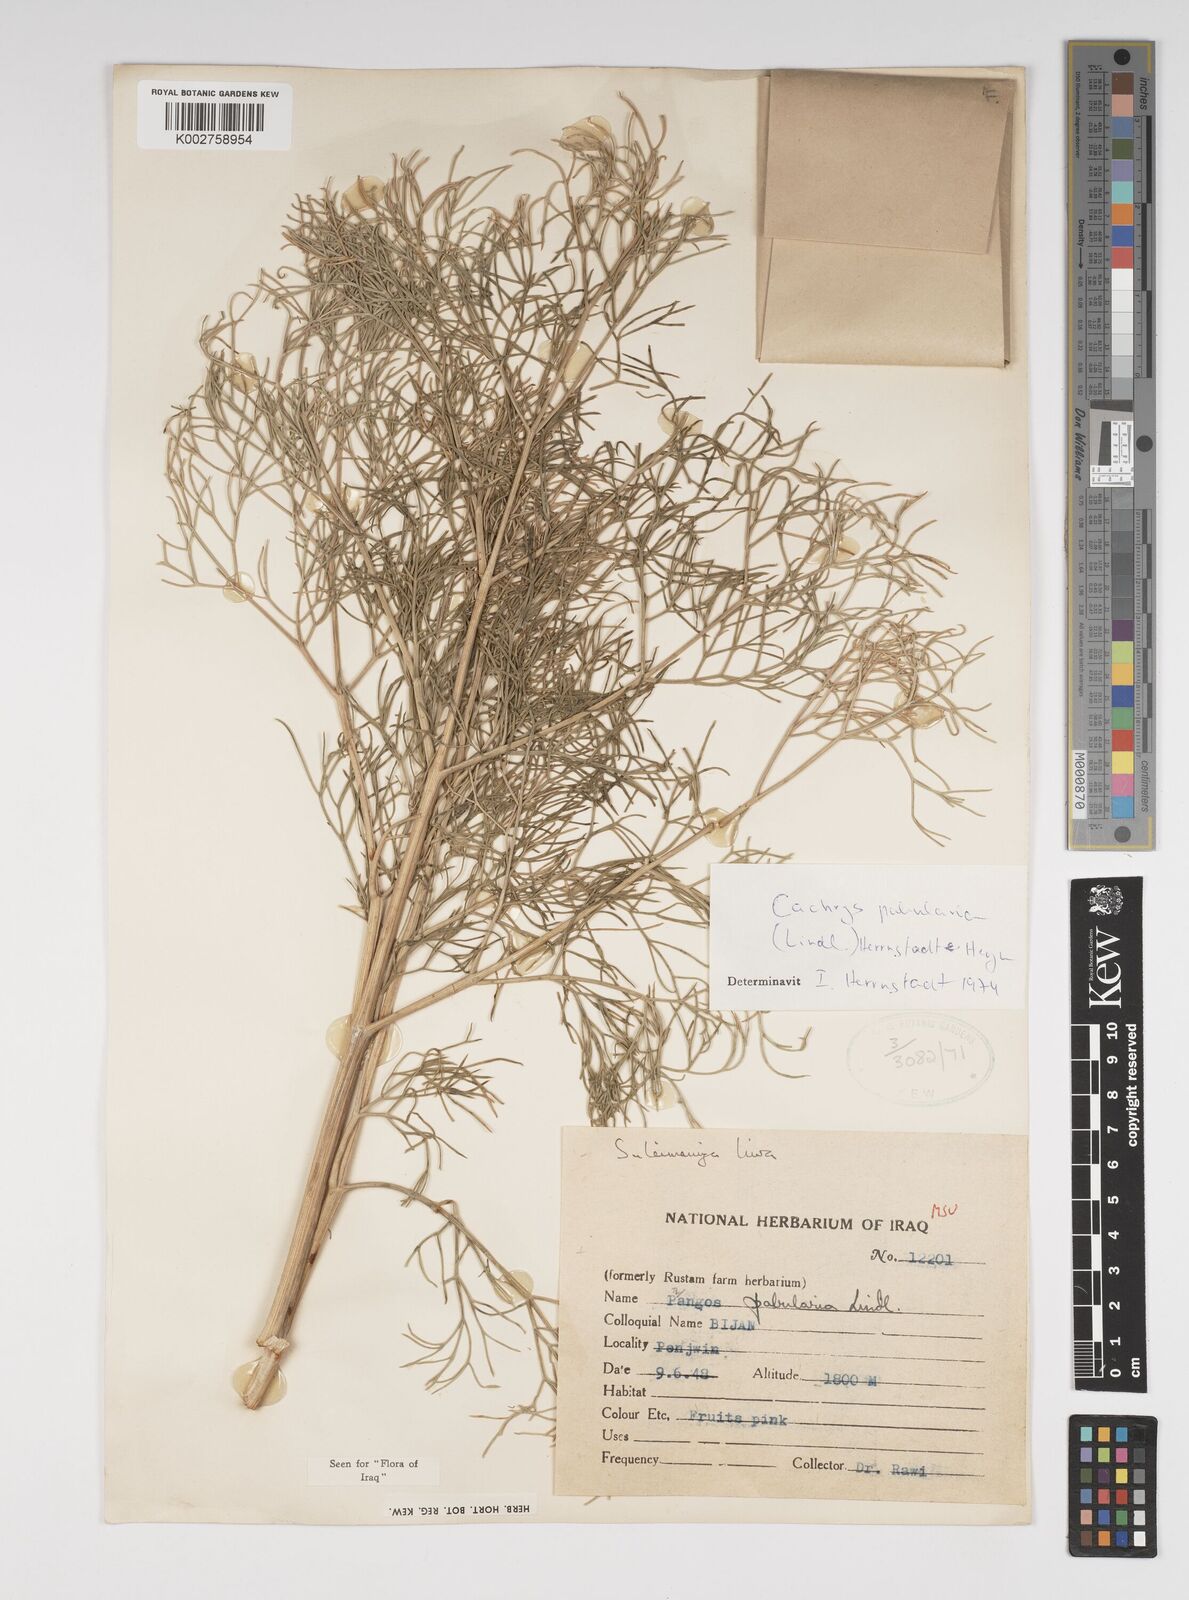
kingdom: Plantae
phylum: Tracheophyta
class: Magnoliopsida
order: Apiales
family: Apiaceae
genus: Prangos
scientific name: Prangos pabularia
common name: Yugan
